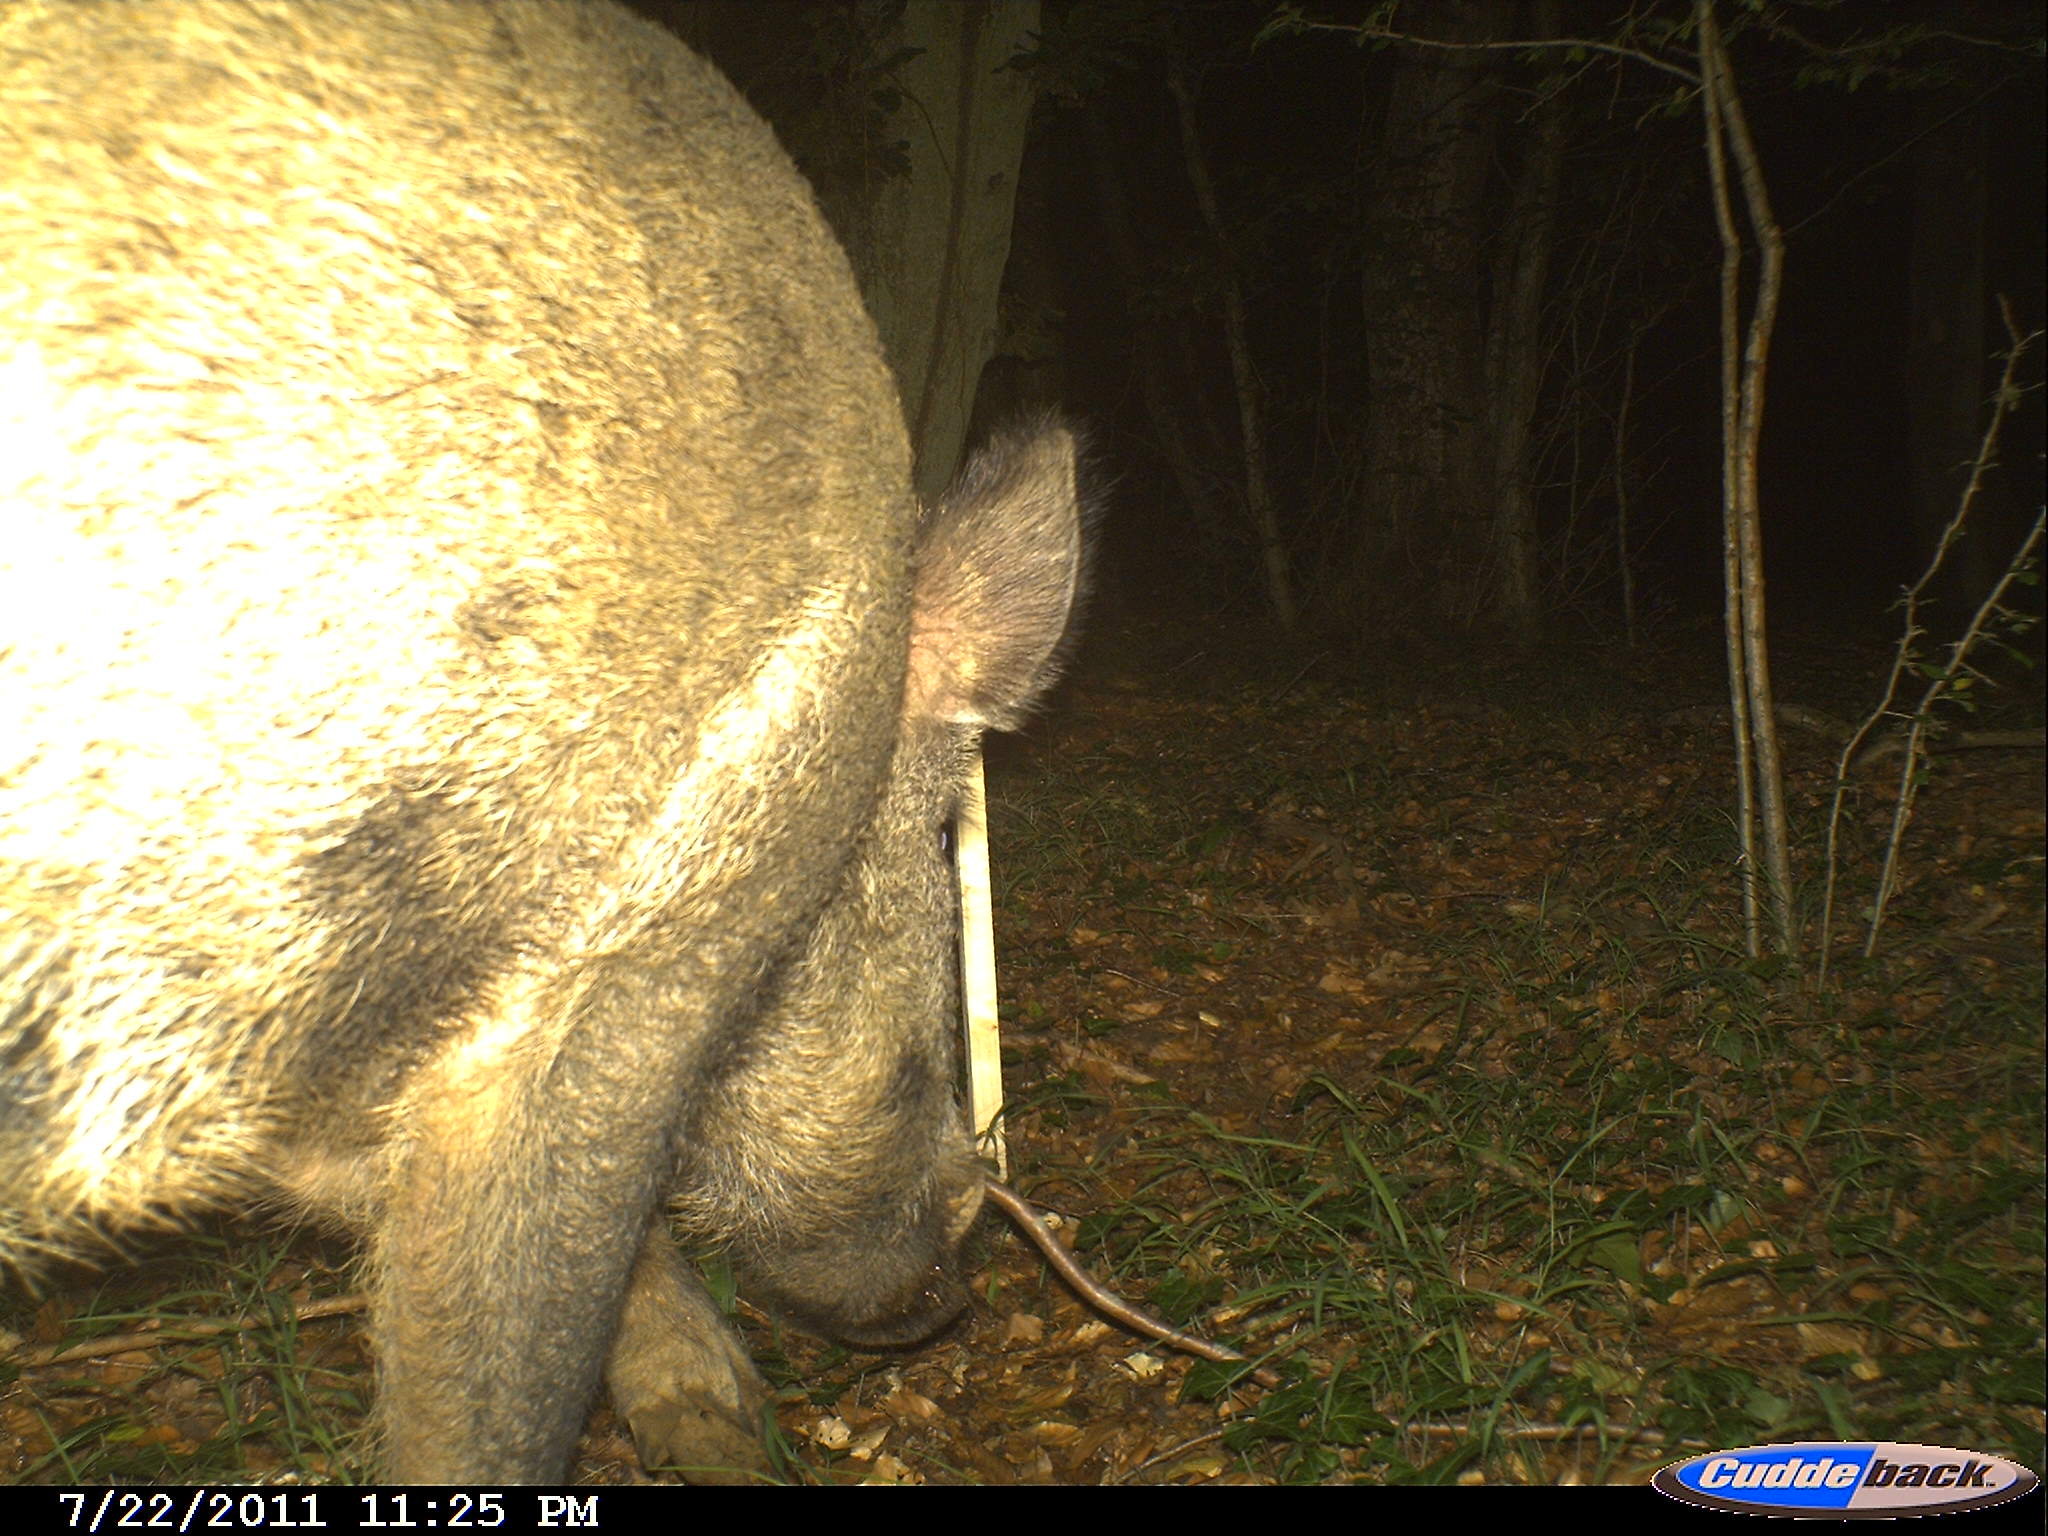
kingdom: Animalia
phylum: Chordata
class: Mammalia
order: Artiodactyla
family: Suidae
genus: Sus
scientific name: Sus scrofa
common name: Wild boar
